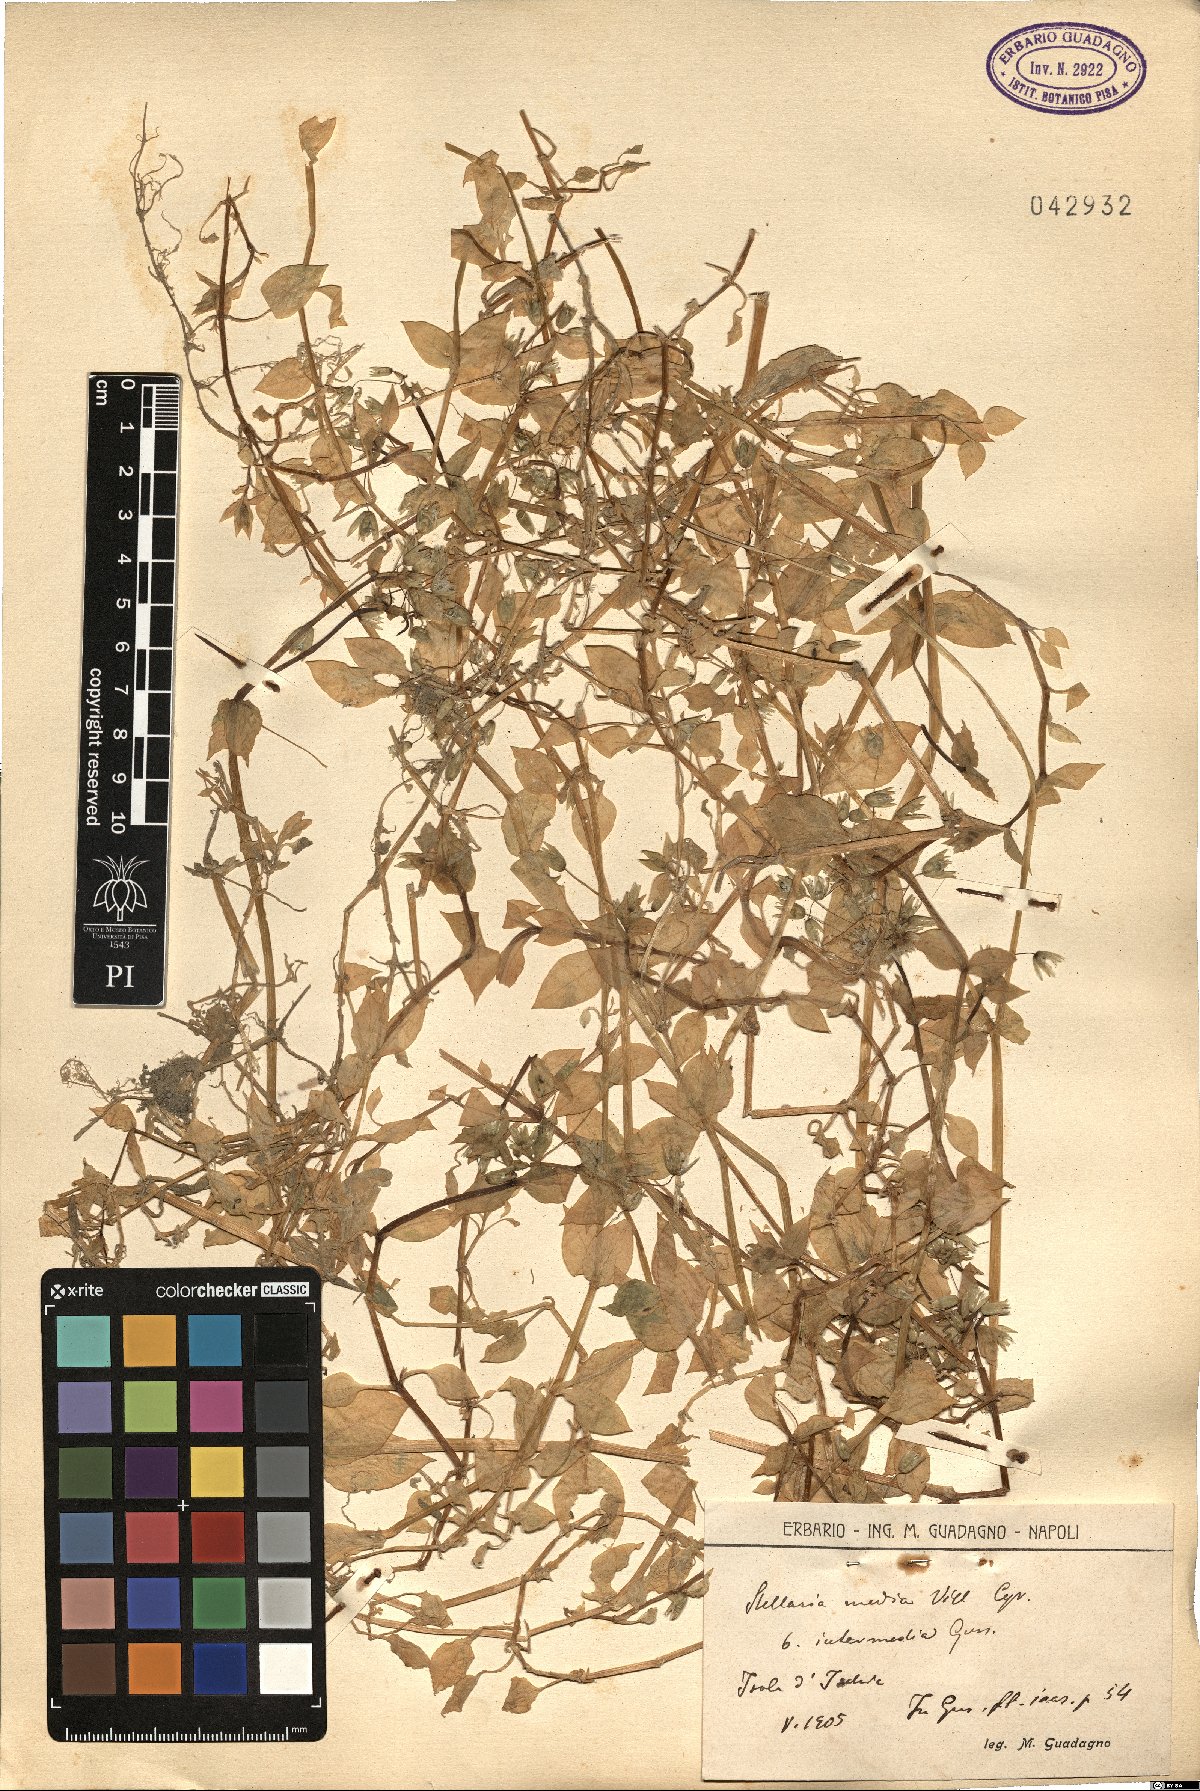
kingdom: Plantae
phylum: Tracheophyta
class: Magnoliopsida
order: Caryophyllales
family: Caryophyllaceae
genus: Stellaria
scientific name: Stellaria media
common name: Common chickweed
